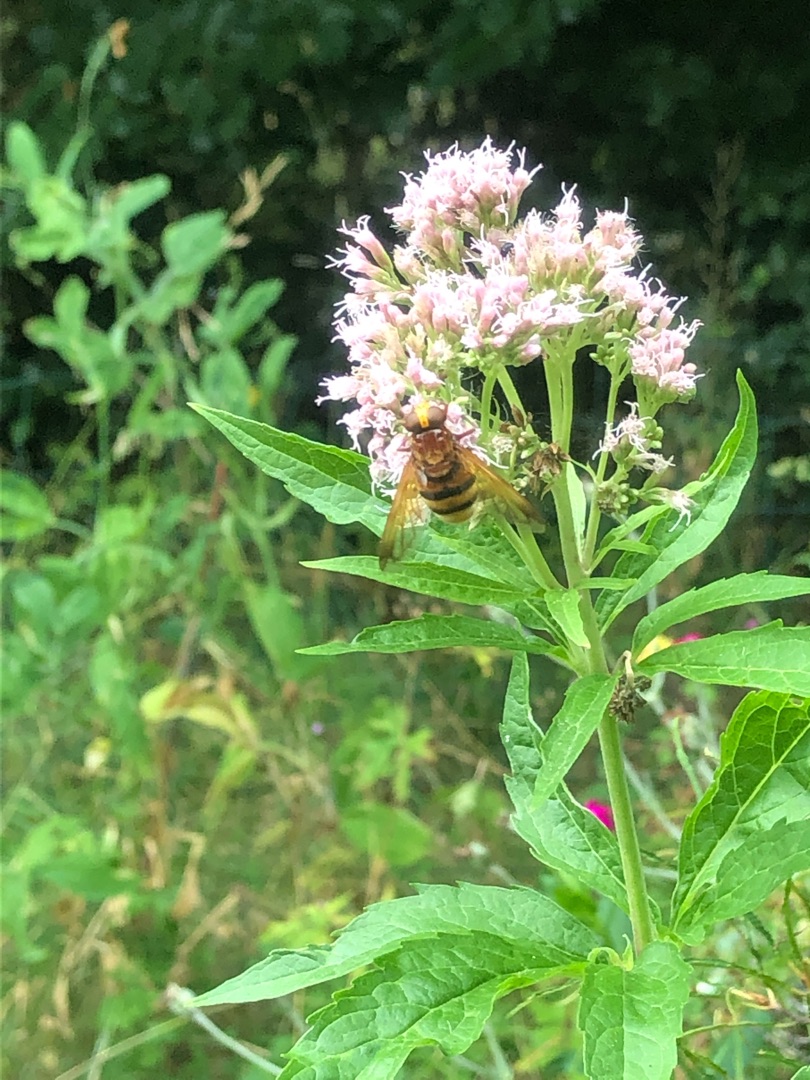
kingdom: Plantae
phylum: Tracheophyta
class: Magnoliopsida
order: Asterales
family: Asteraceae
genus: Eupatorium
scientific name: Eupatorium cannabinum
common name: Hjortetrøst
